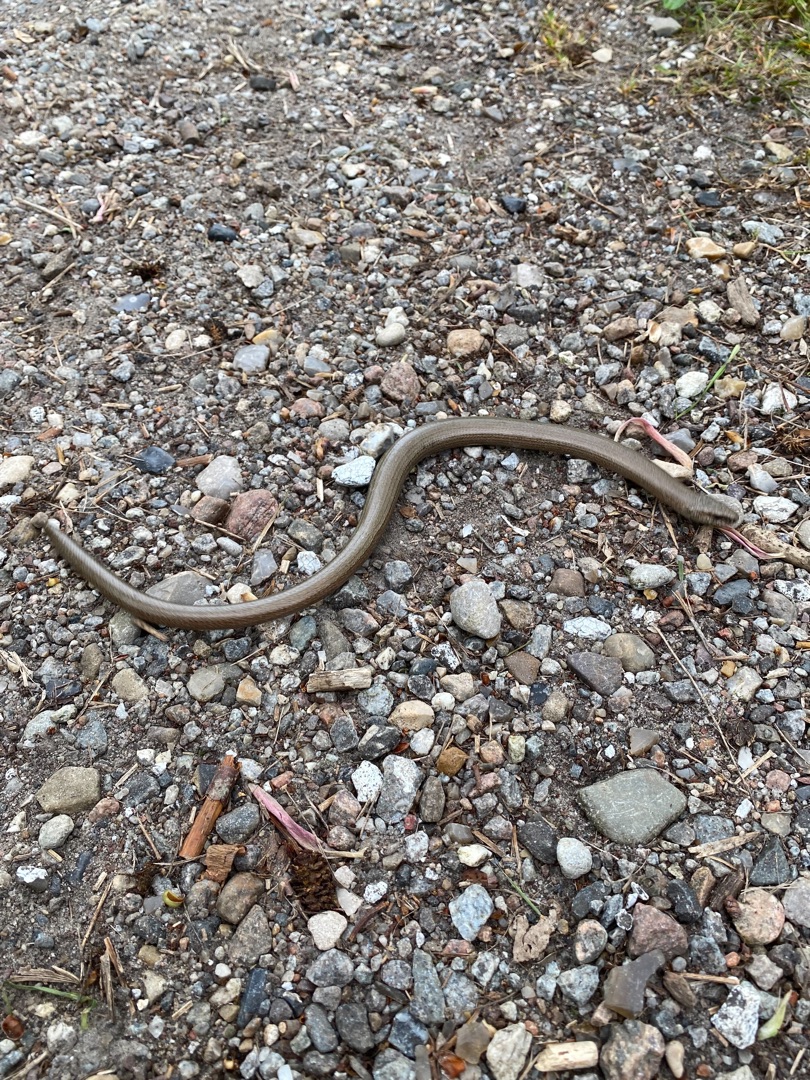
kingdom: Animalia
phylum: Chordata
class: Squamata
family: Anguidae
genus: Anguis
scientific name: Anguis fragilis
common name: Stålorm
